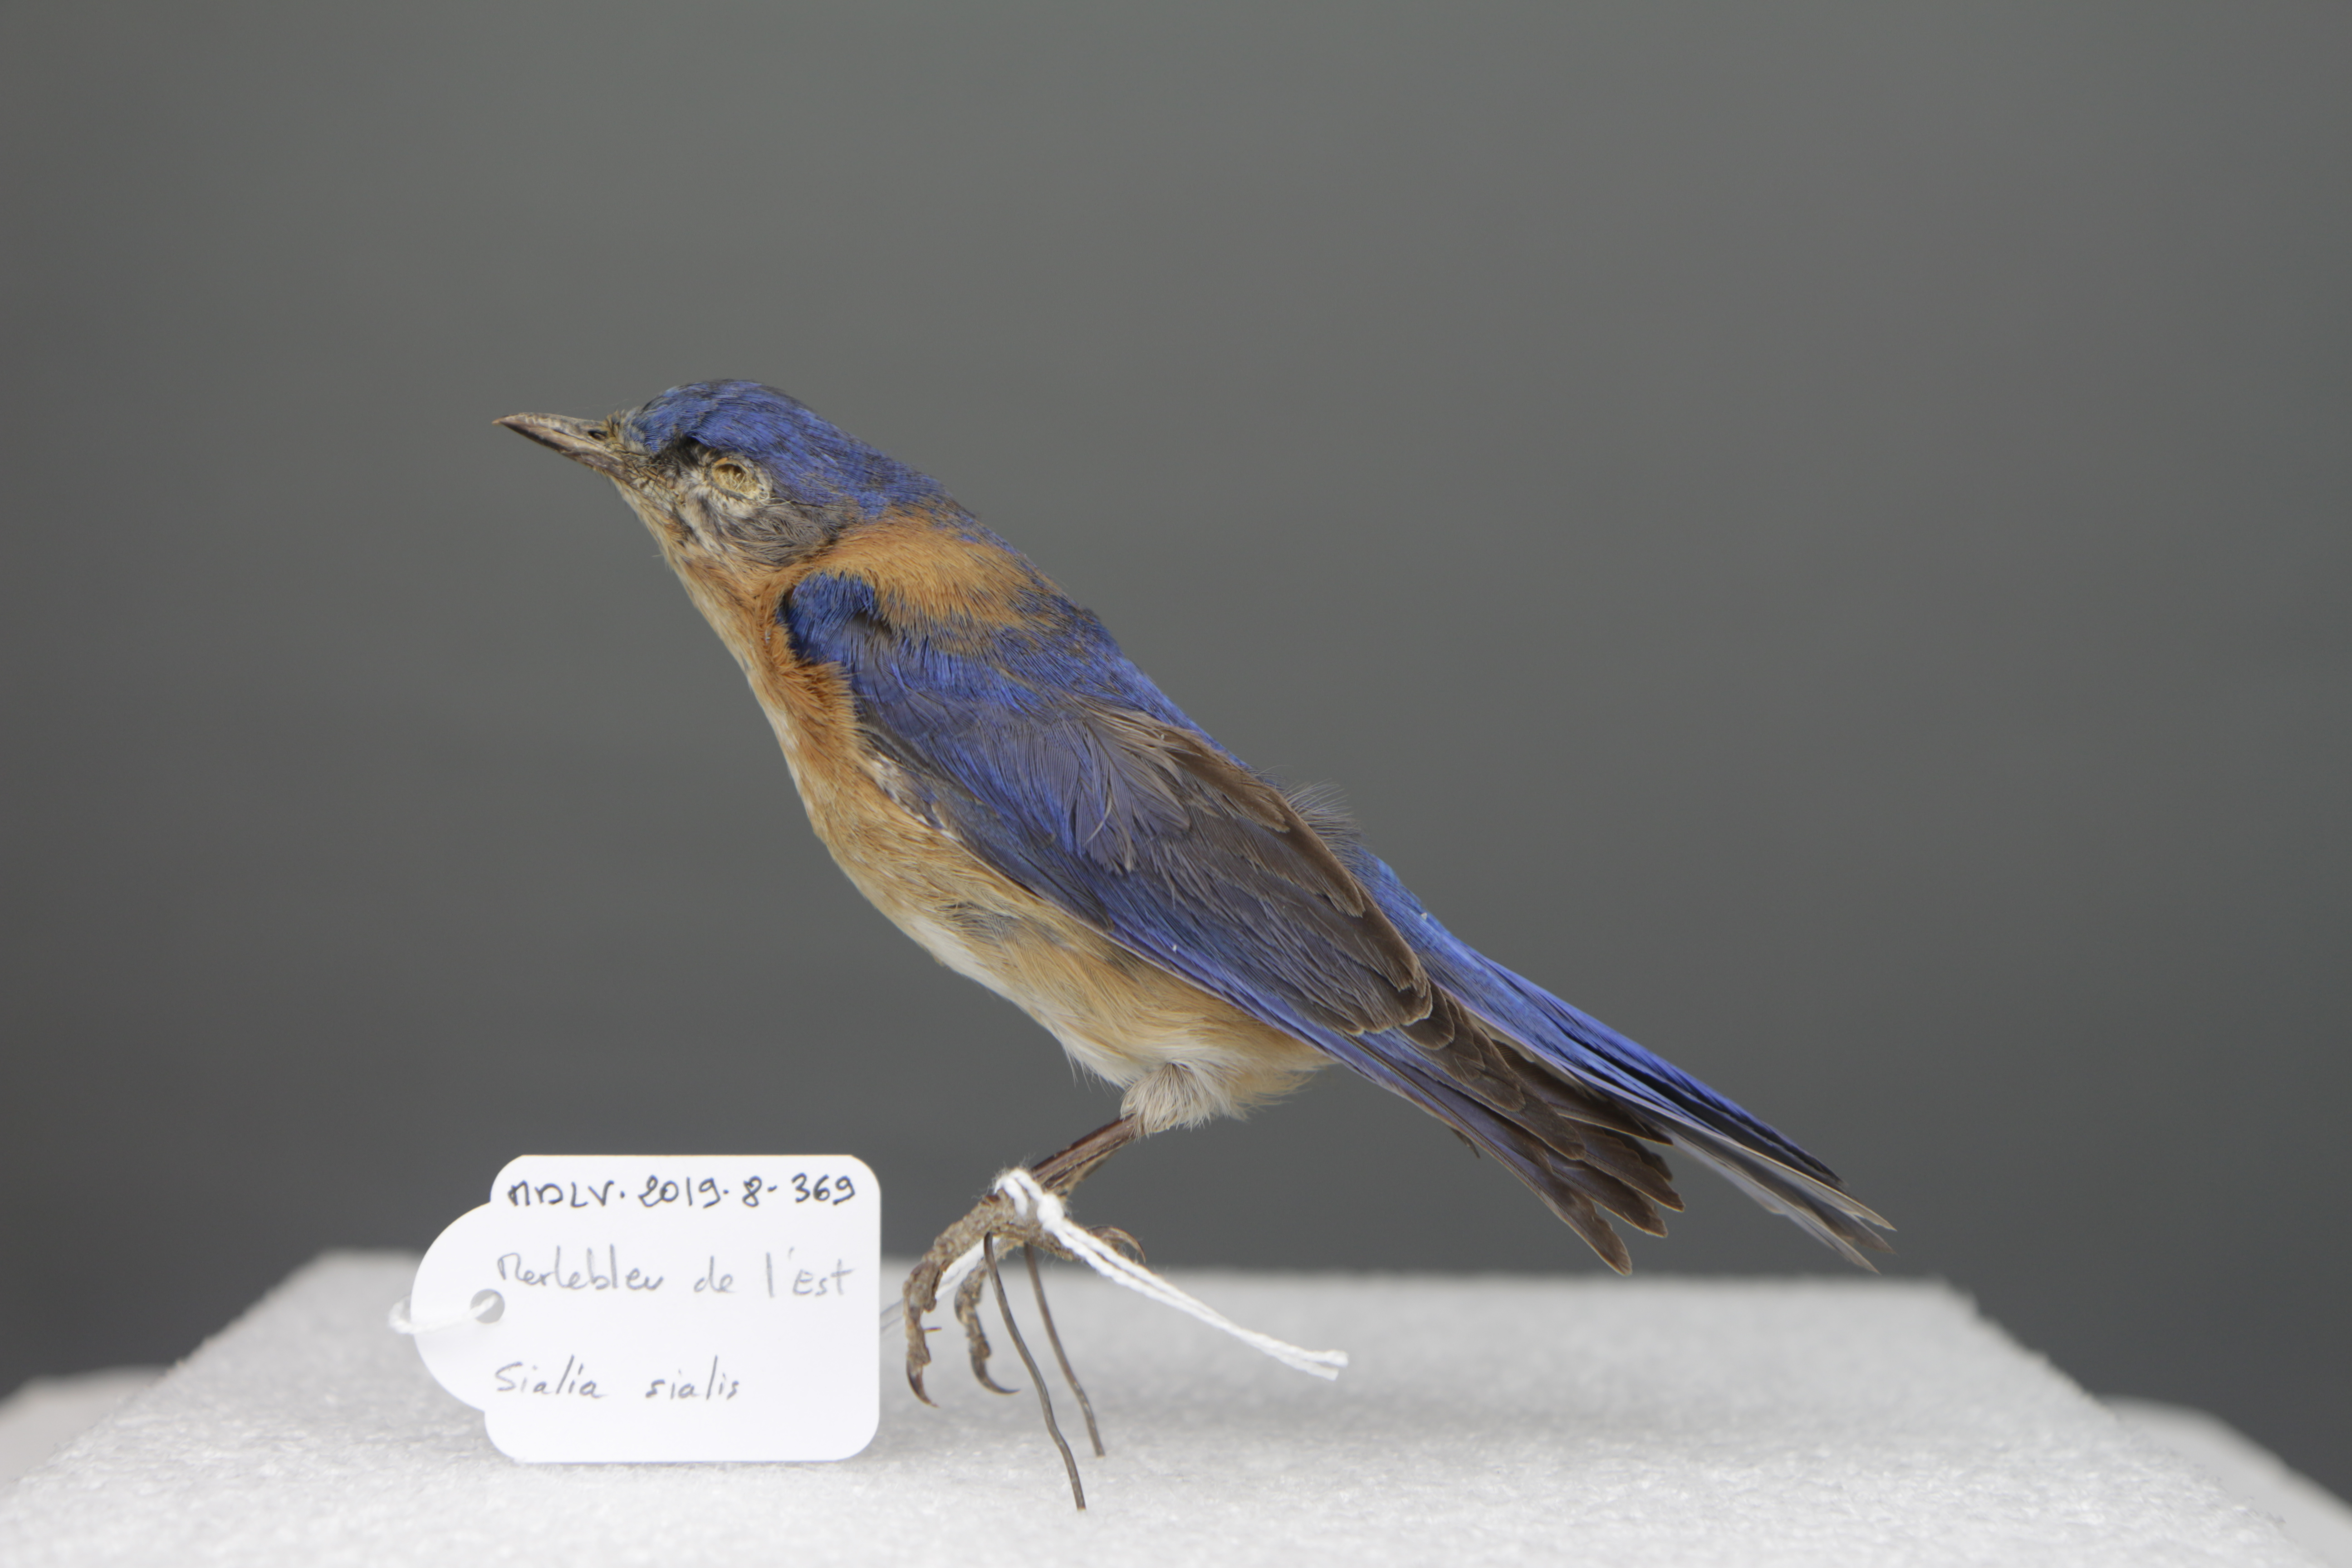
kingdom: Animalia
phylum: Chordata
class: Aves
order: Passeriformes
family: Turdidae
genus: Sialia
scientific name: Sialia sialis
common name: Eastern bluebird
